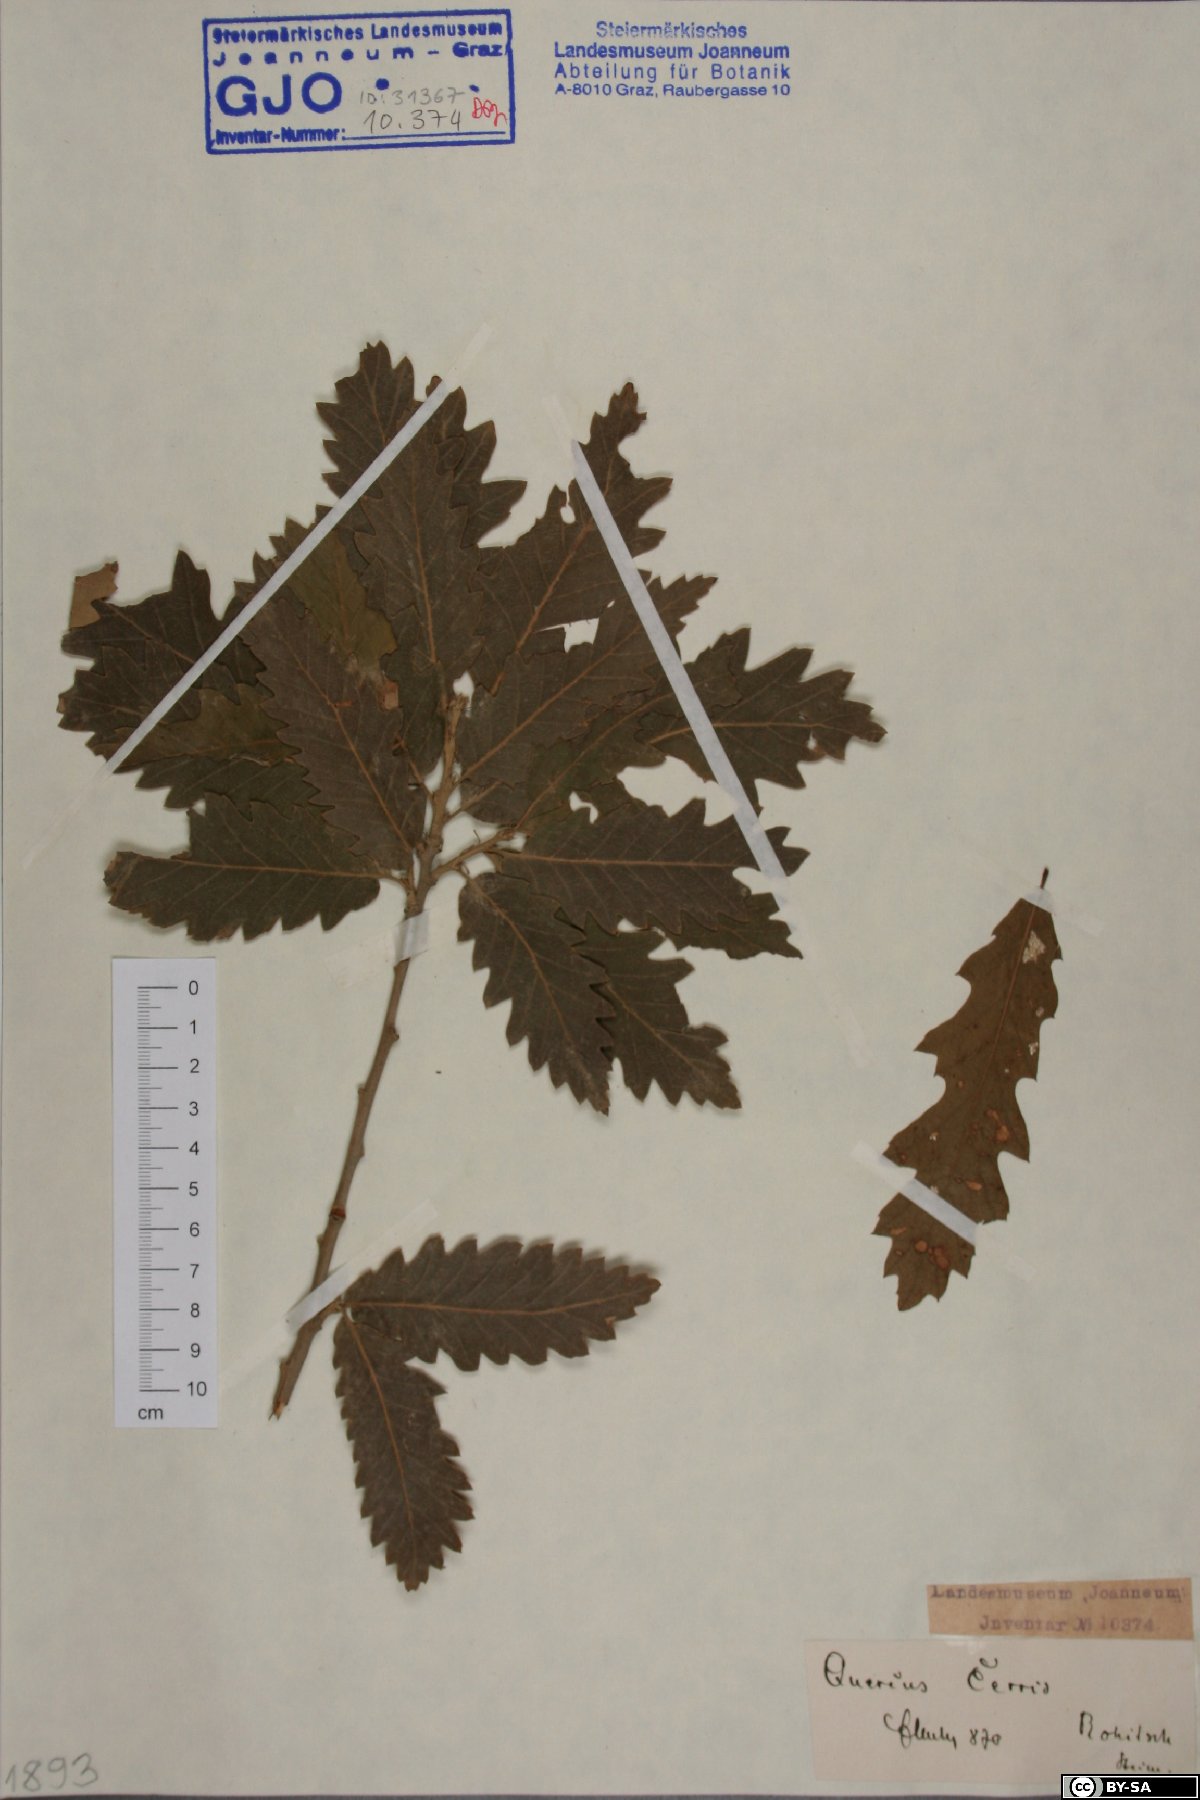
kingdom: Plantae
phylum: Tracheophyta
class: Magnoliopsida
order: Fagales
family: Fagaceae
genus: Quercus
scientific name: Quercus cerris
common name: Turkey oak
